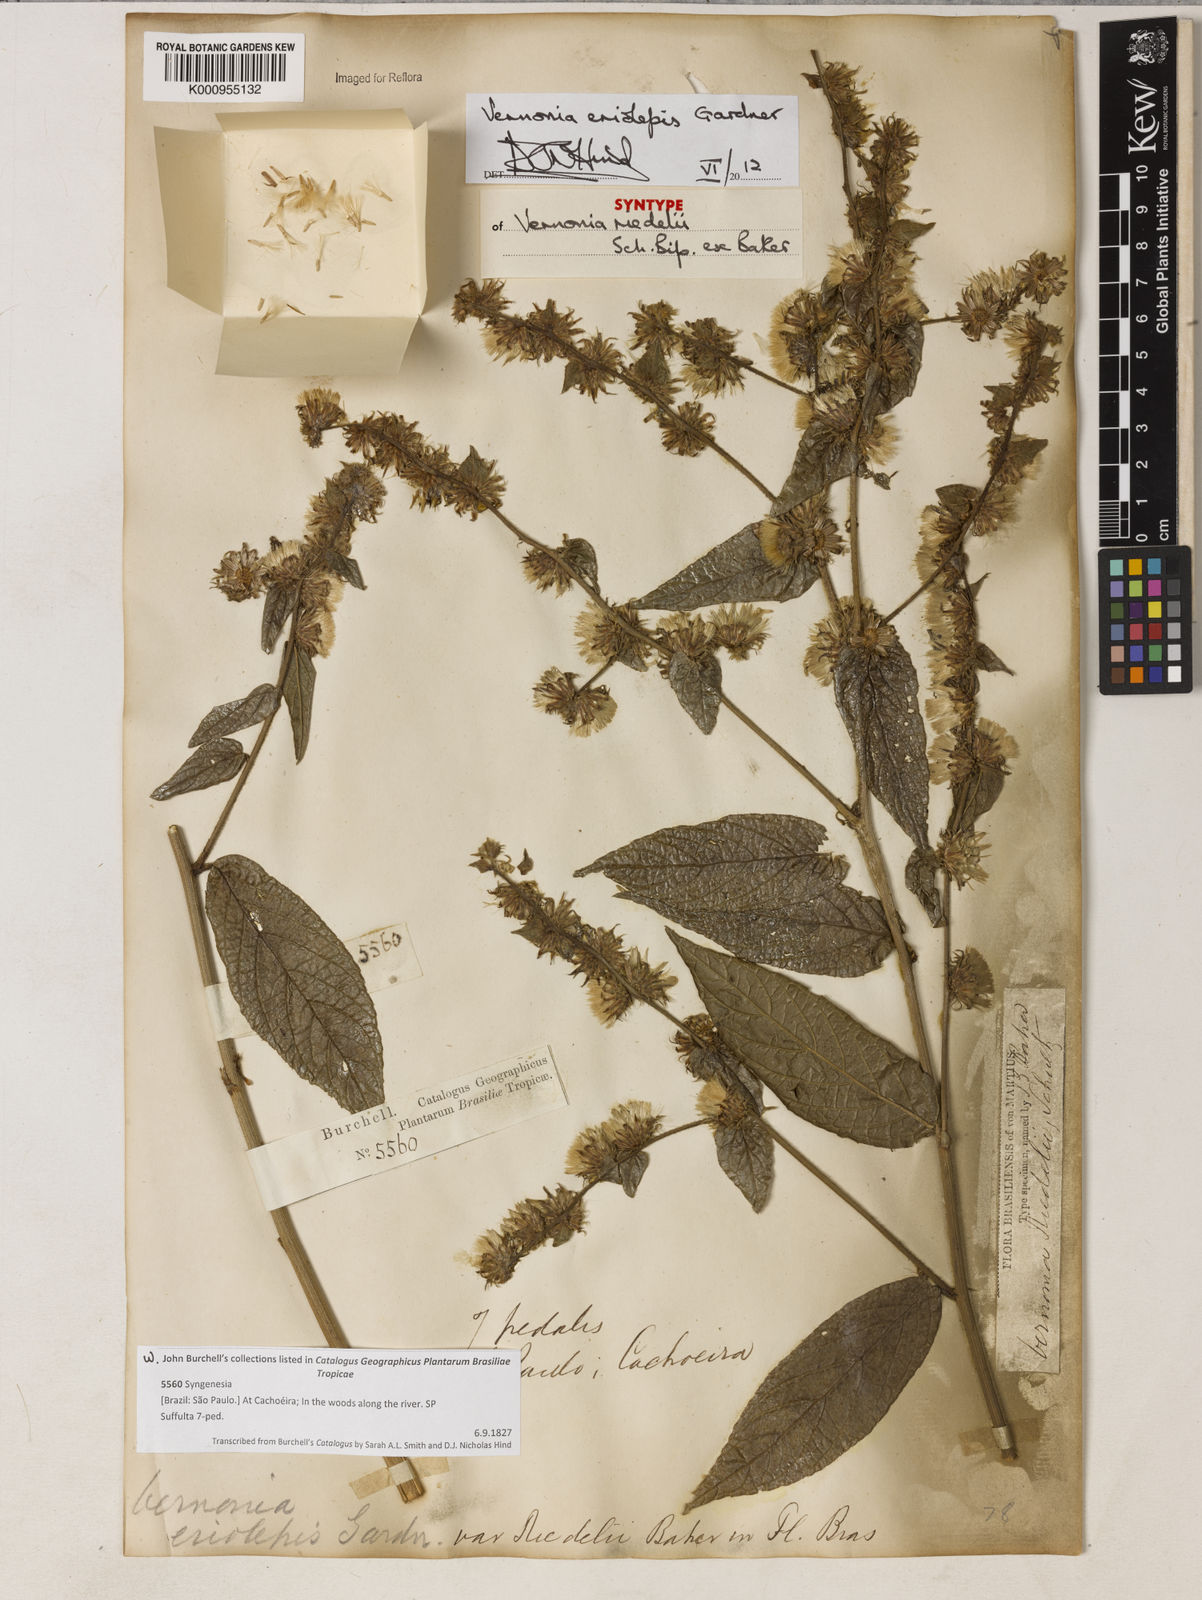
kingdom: Plantae
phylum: Tracheophyta
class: Magnoliopsida
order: Asterales
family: Asteraceae
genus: Lepidaploa
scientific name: Lepidaploa eriolepis
